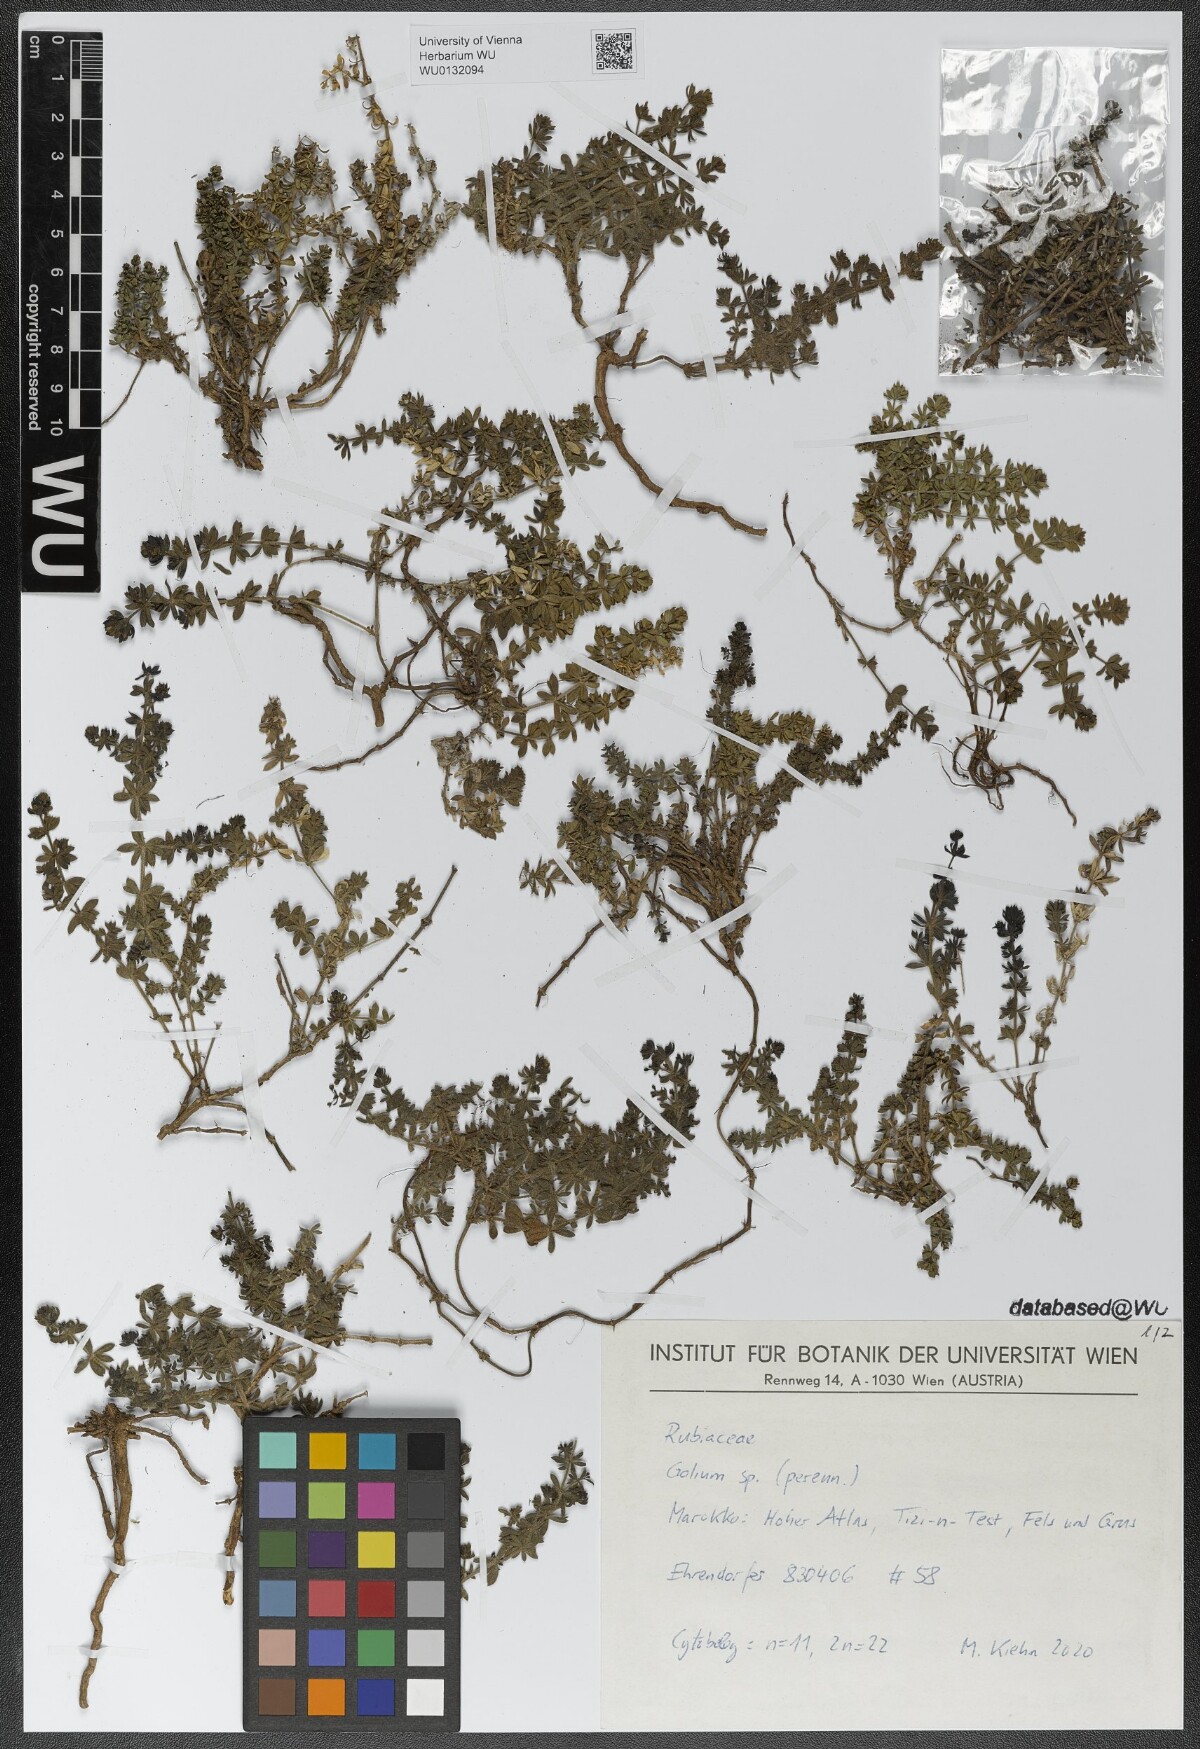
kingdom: Plantae
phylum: Tracheophyta
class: Magnoliopsida
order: Gentianales
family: Rubiaceae
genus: Galium
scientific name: Galium bourgaeanum
